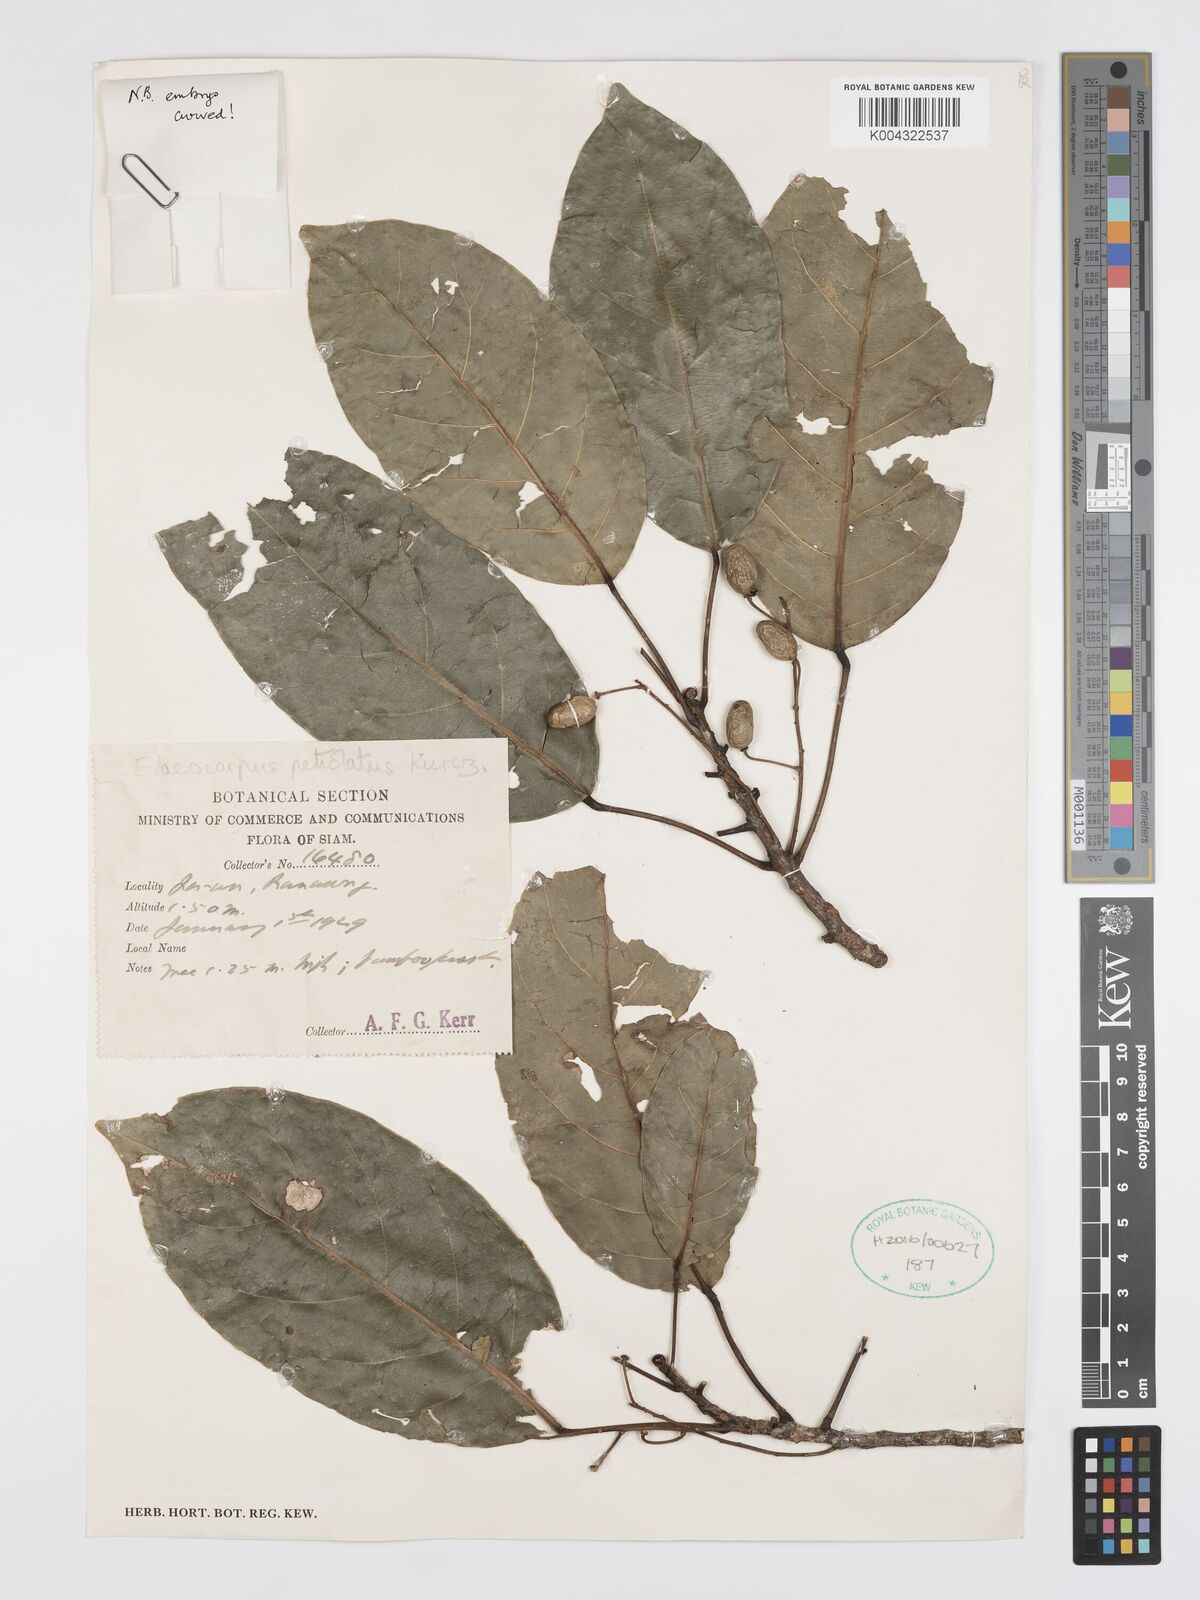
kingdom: Plantae
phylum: Tracheophyta
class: Magnoliopsida
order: Oxalidales
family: Elaeocarpaceae
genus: Elaeocarpus
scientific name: Elaeocarpus petiolatus
